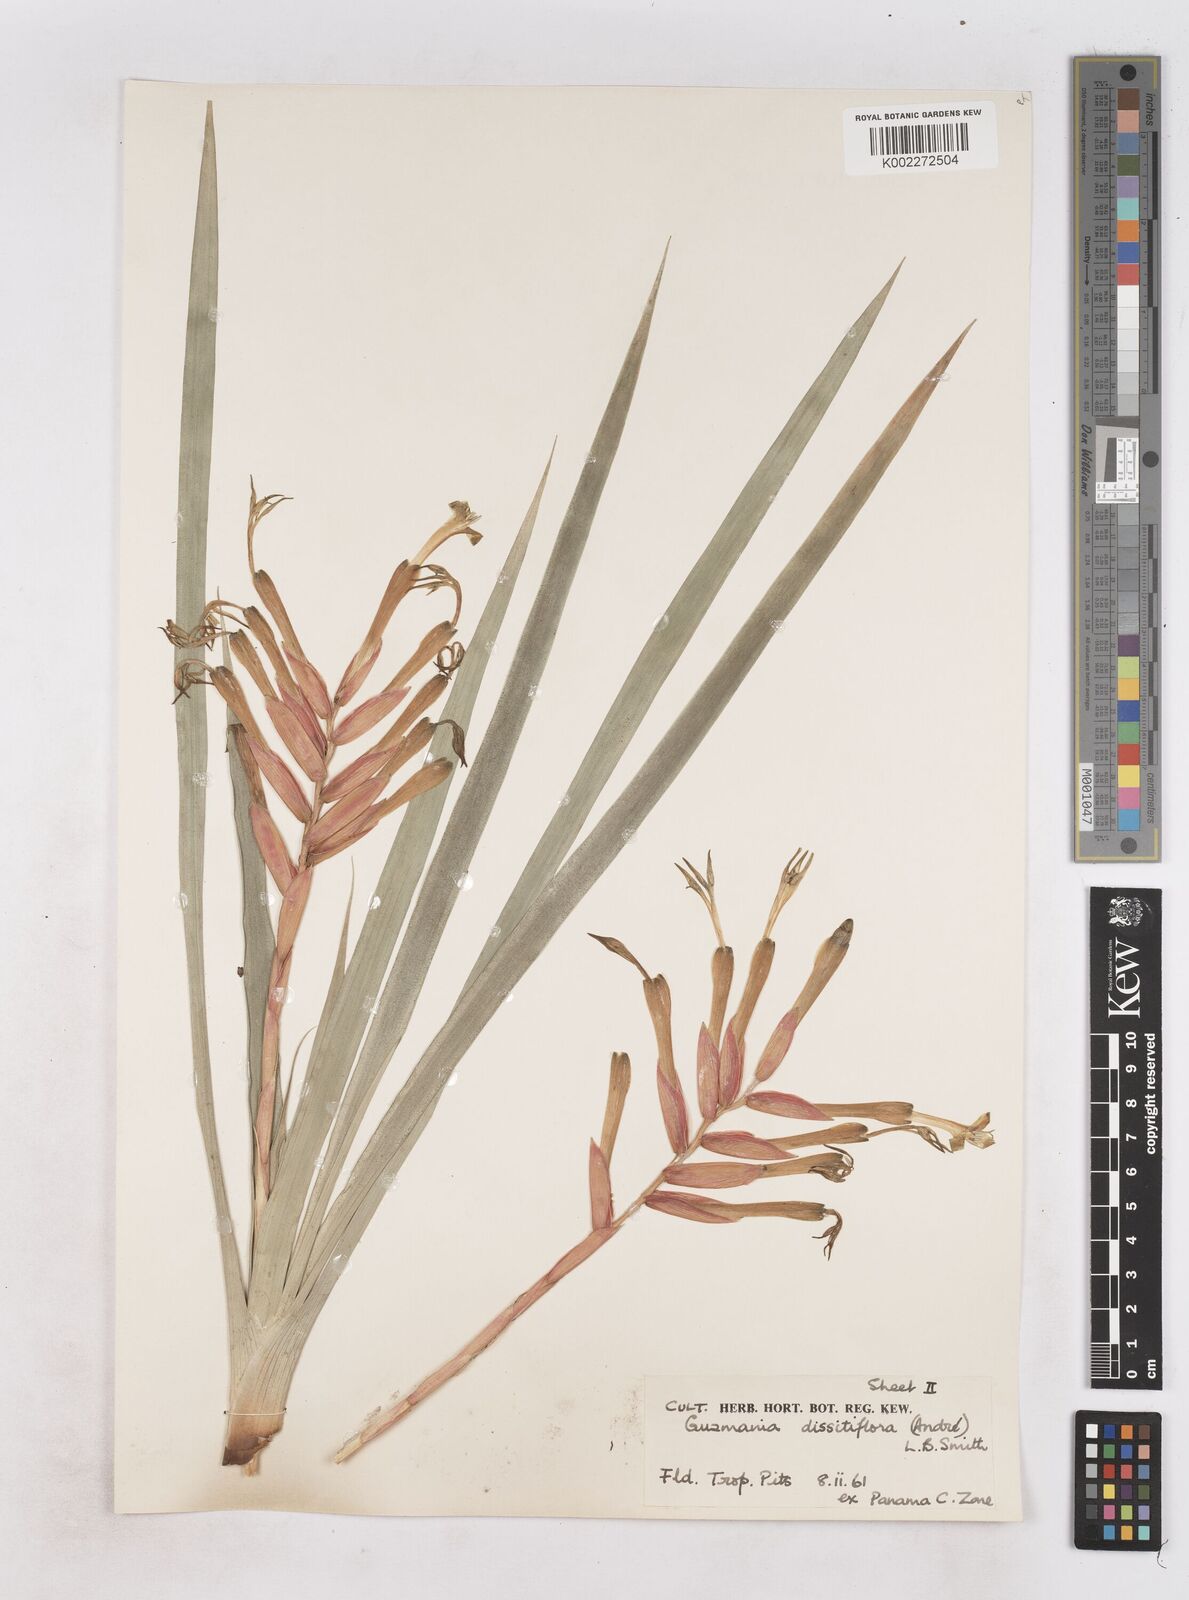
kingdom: Plantae
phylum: Tracheophyta
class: Liliopsida
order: Poales
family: Bromeliaceae
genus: Guzmania
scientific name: Guzmania dissitiflora
